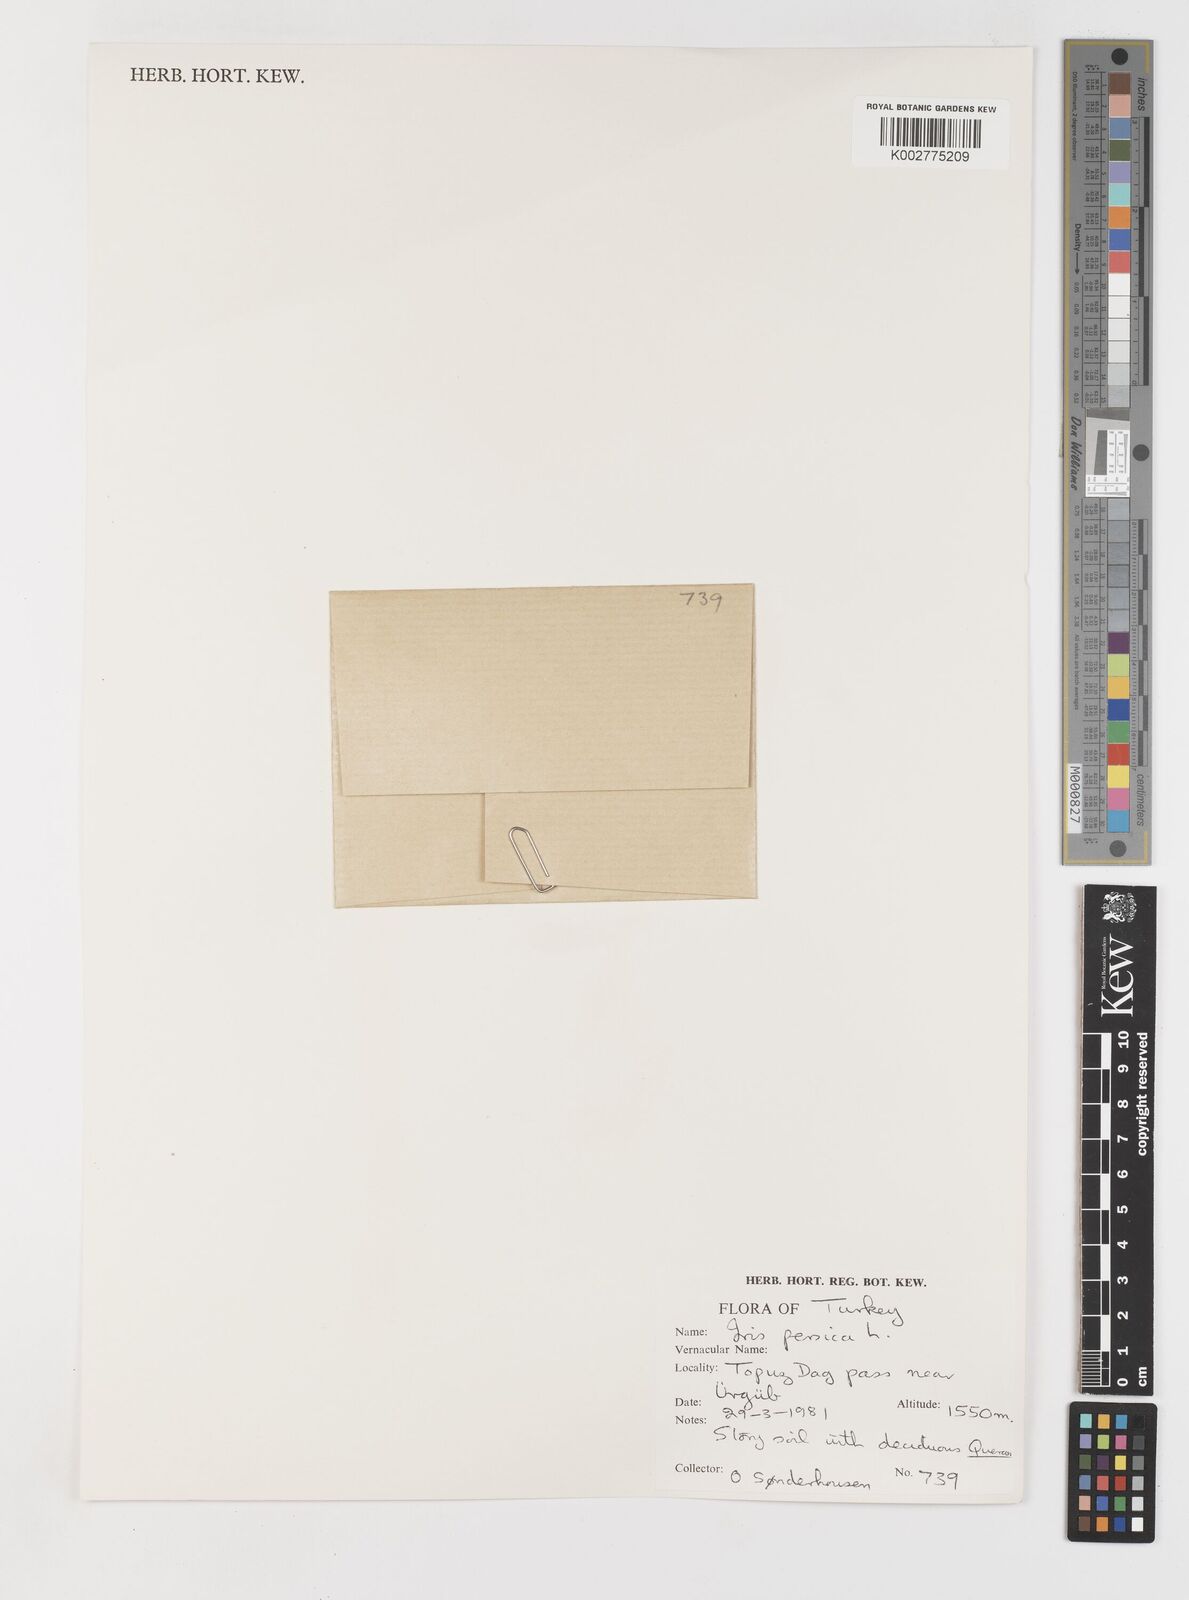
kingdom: Plantae
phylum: Tracheophyta
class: Liliopsida
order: Asparagales
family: Iridaceae
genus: Iris
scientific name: Iris persica
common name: Persian iris
